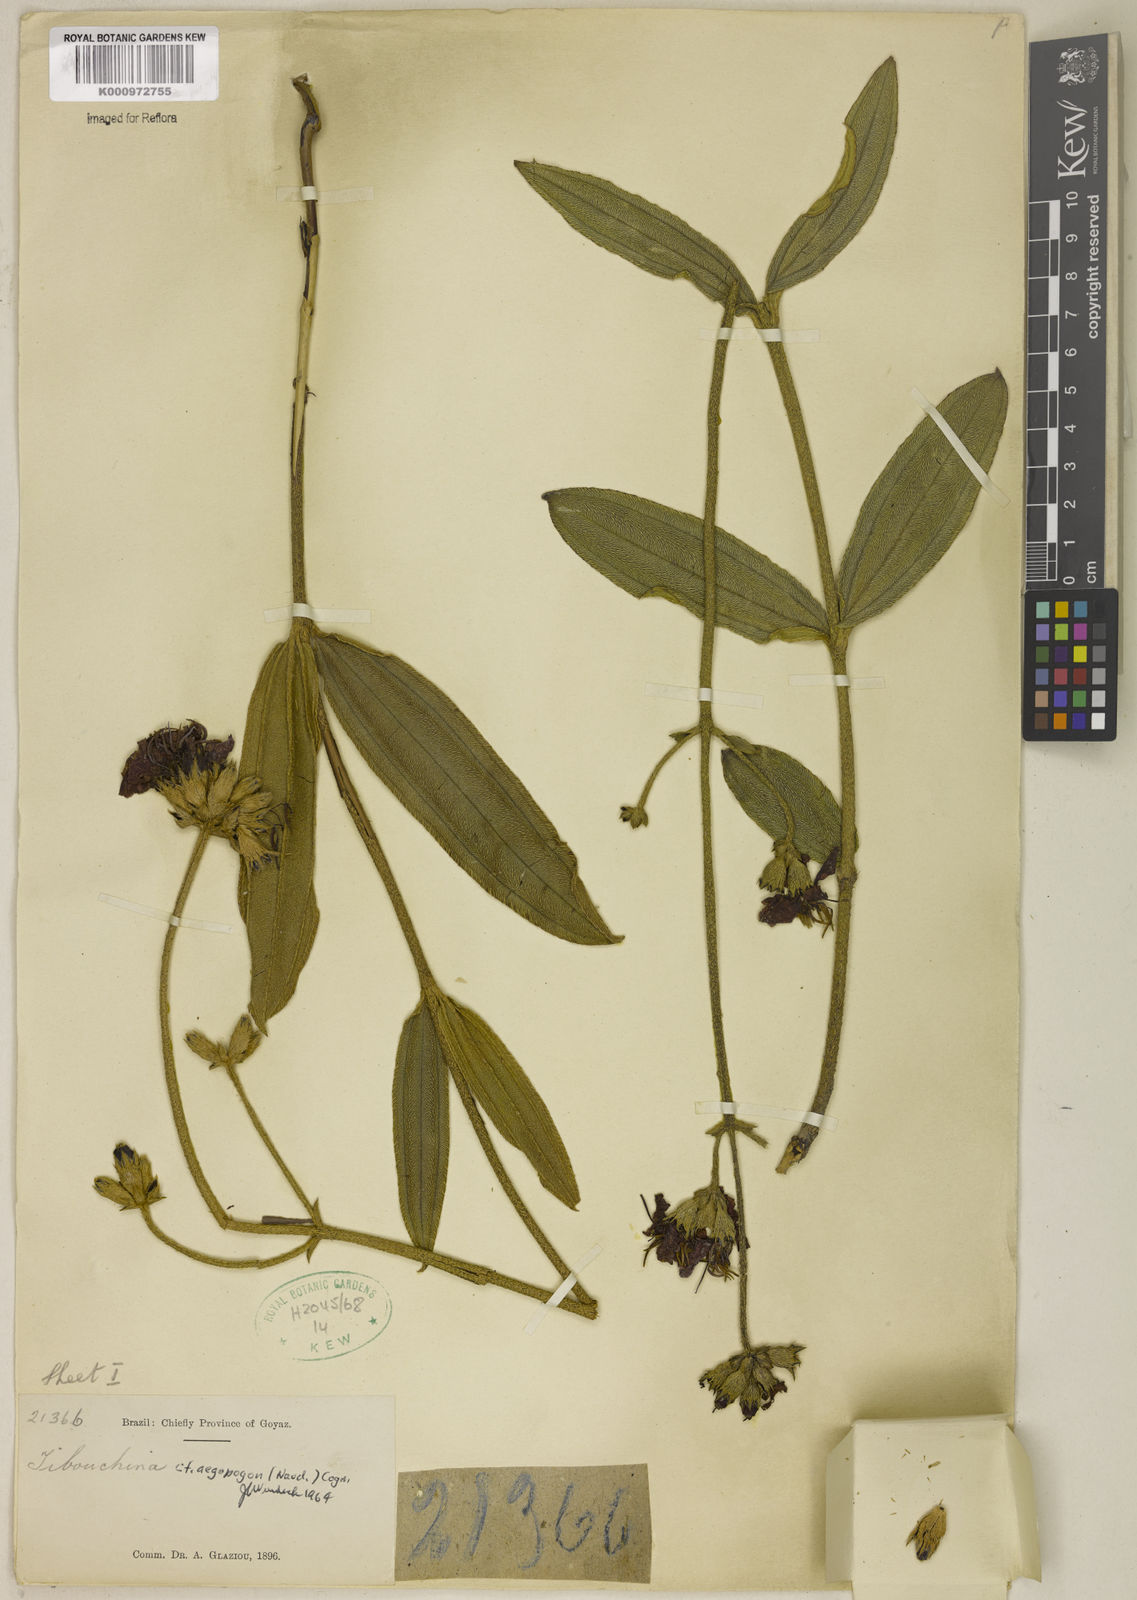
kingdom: Plantae
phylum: Tracheophyta
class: Magnoliopsida
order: Myrtales
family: Melastomataceae
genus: Pleroma
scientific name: Pleroma aegopogon
